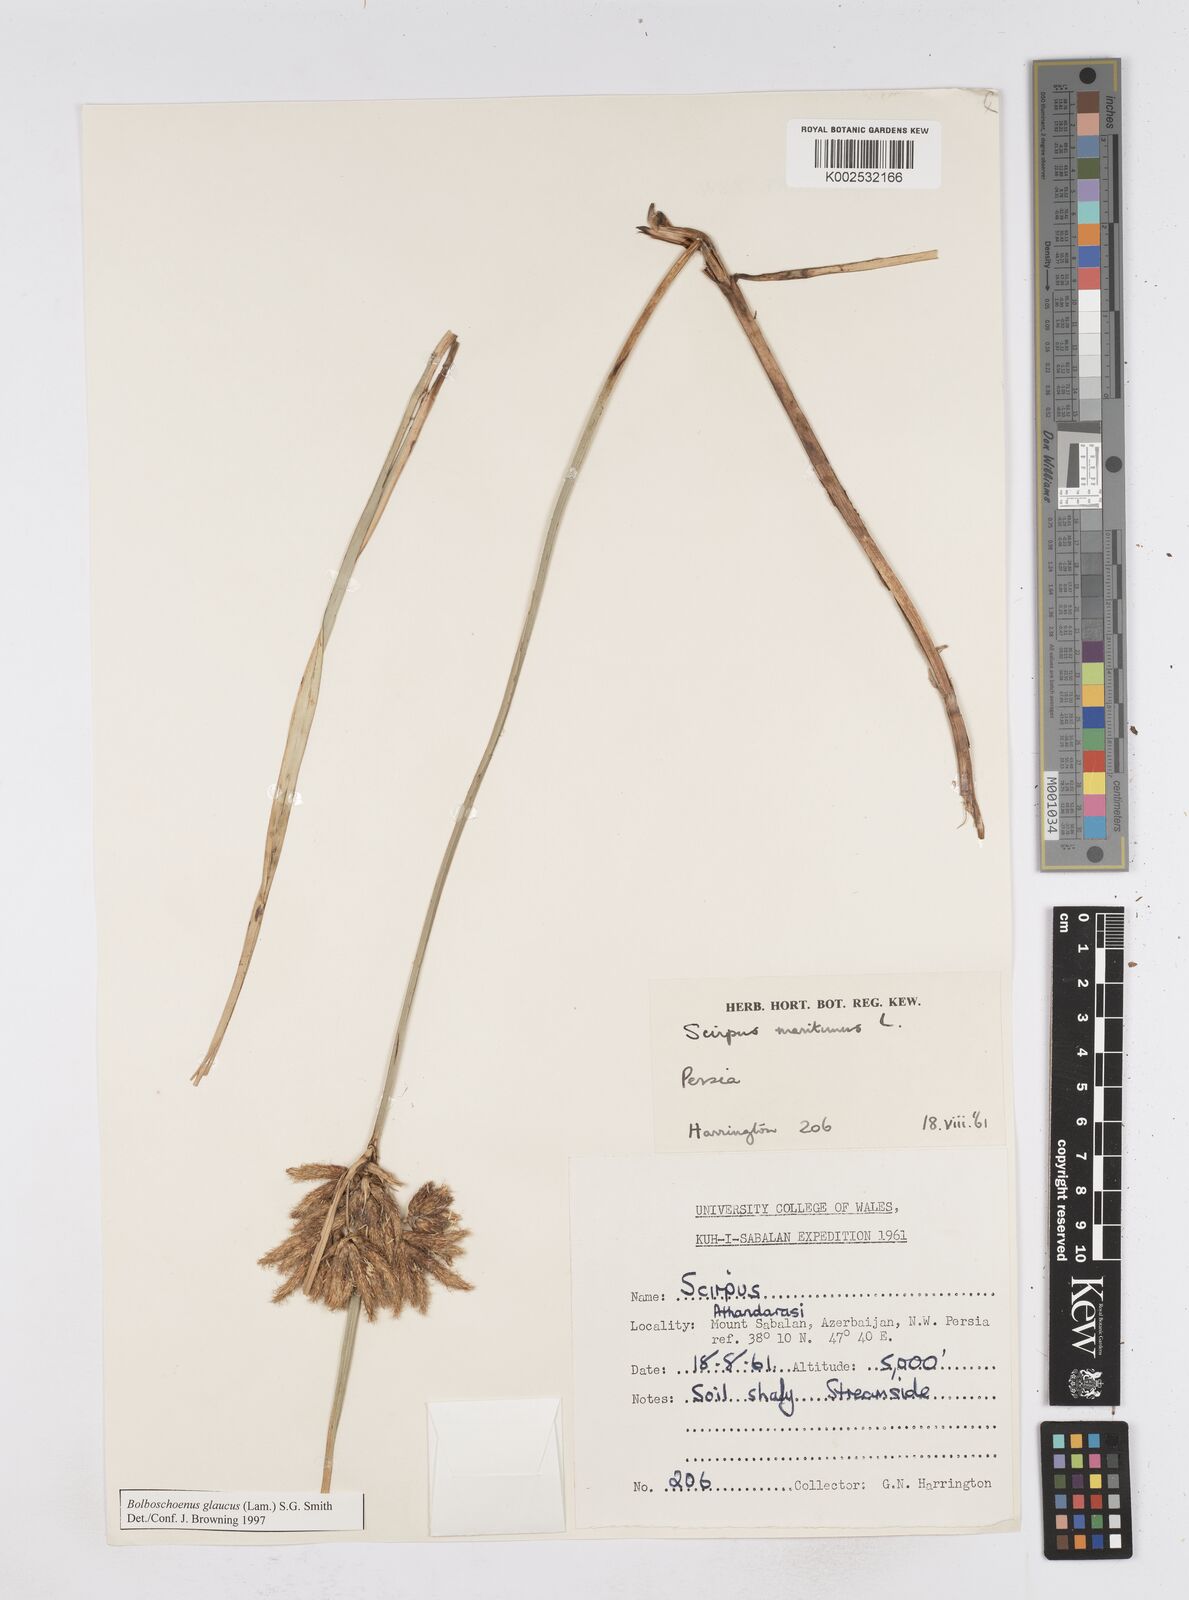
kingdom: Plantae
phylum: Tracheophyta
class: Liliopsida
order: Poales
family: Cyperaceae
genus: Bolboschoenus
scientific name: Bolboschoenus maritimus
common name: Sea club-rush
